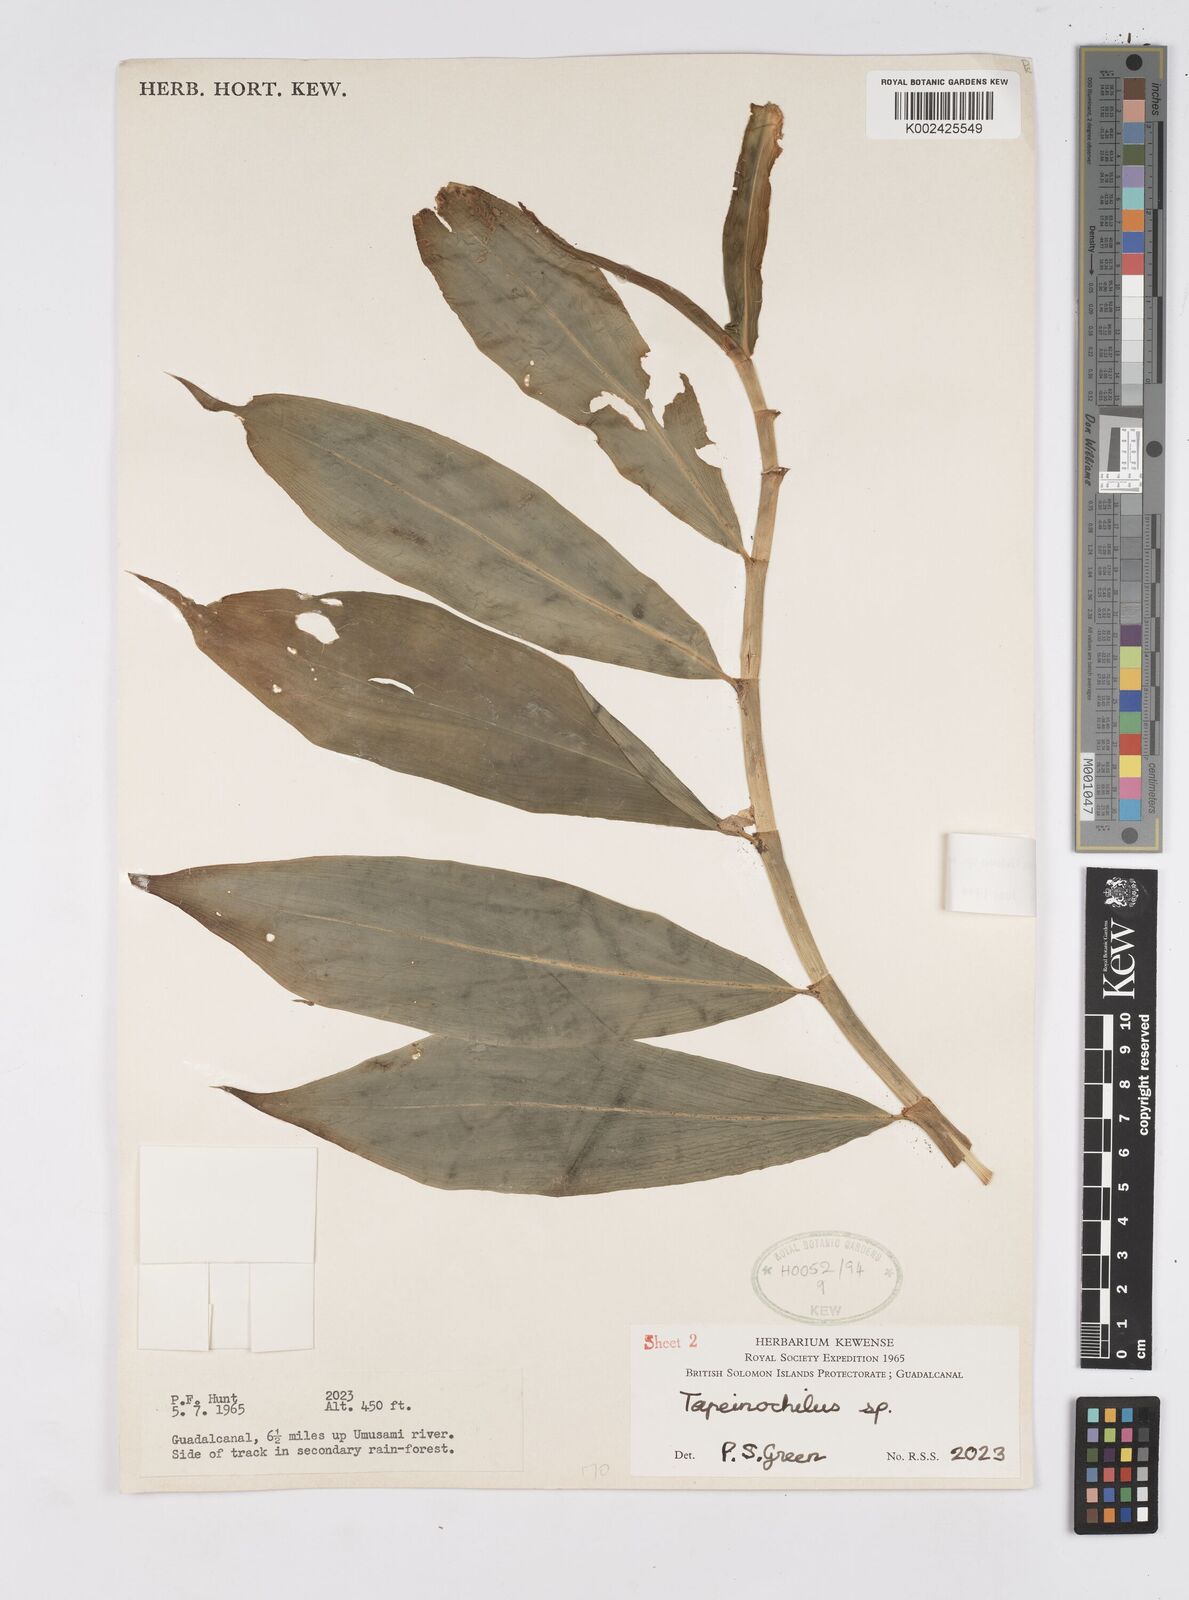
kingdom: Plantae
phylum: Tracheophyta
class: Liliopsida
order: Zingiberales
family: Costaceae
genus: Tapeinochilos
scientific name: Tapeinochilos
